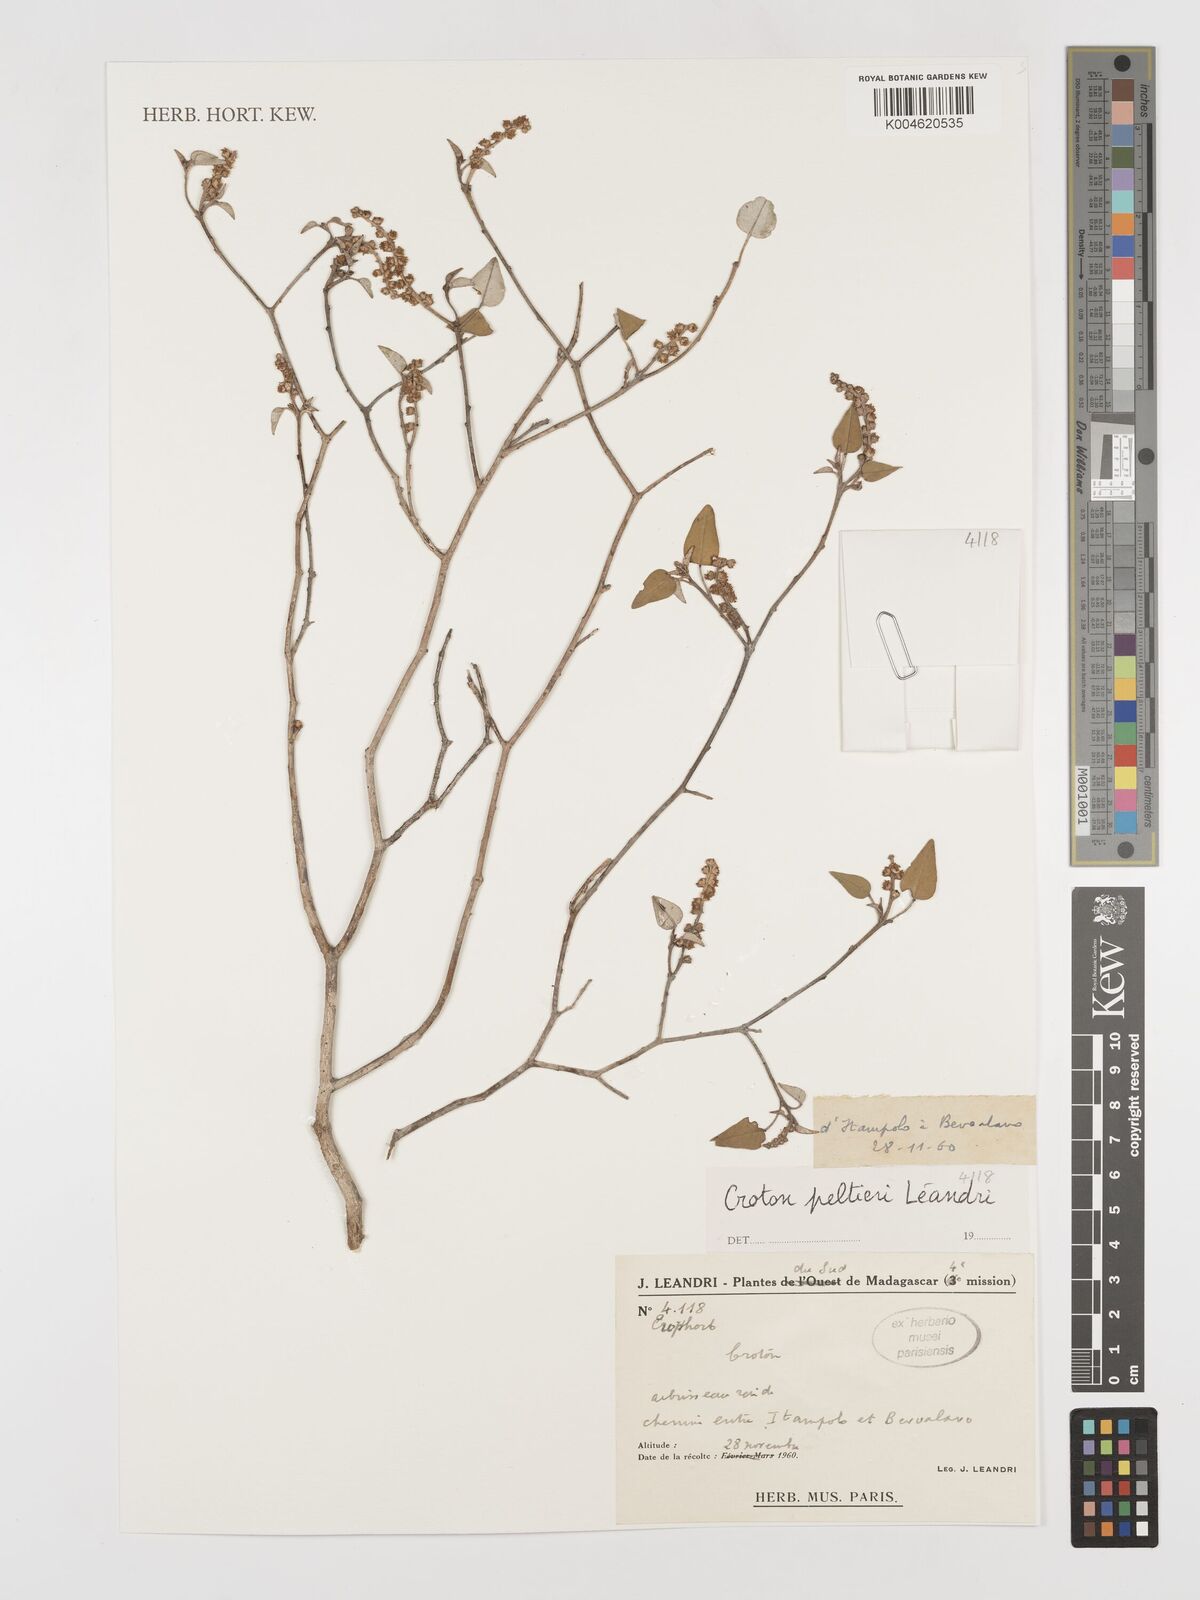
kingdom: Plantae
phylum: Tracheophyta
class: Magnoliopsida
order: Malpighiales
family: Euphorbiaceae
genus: Croton
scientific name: Croton miarensis
